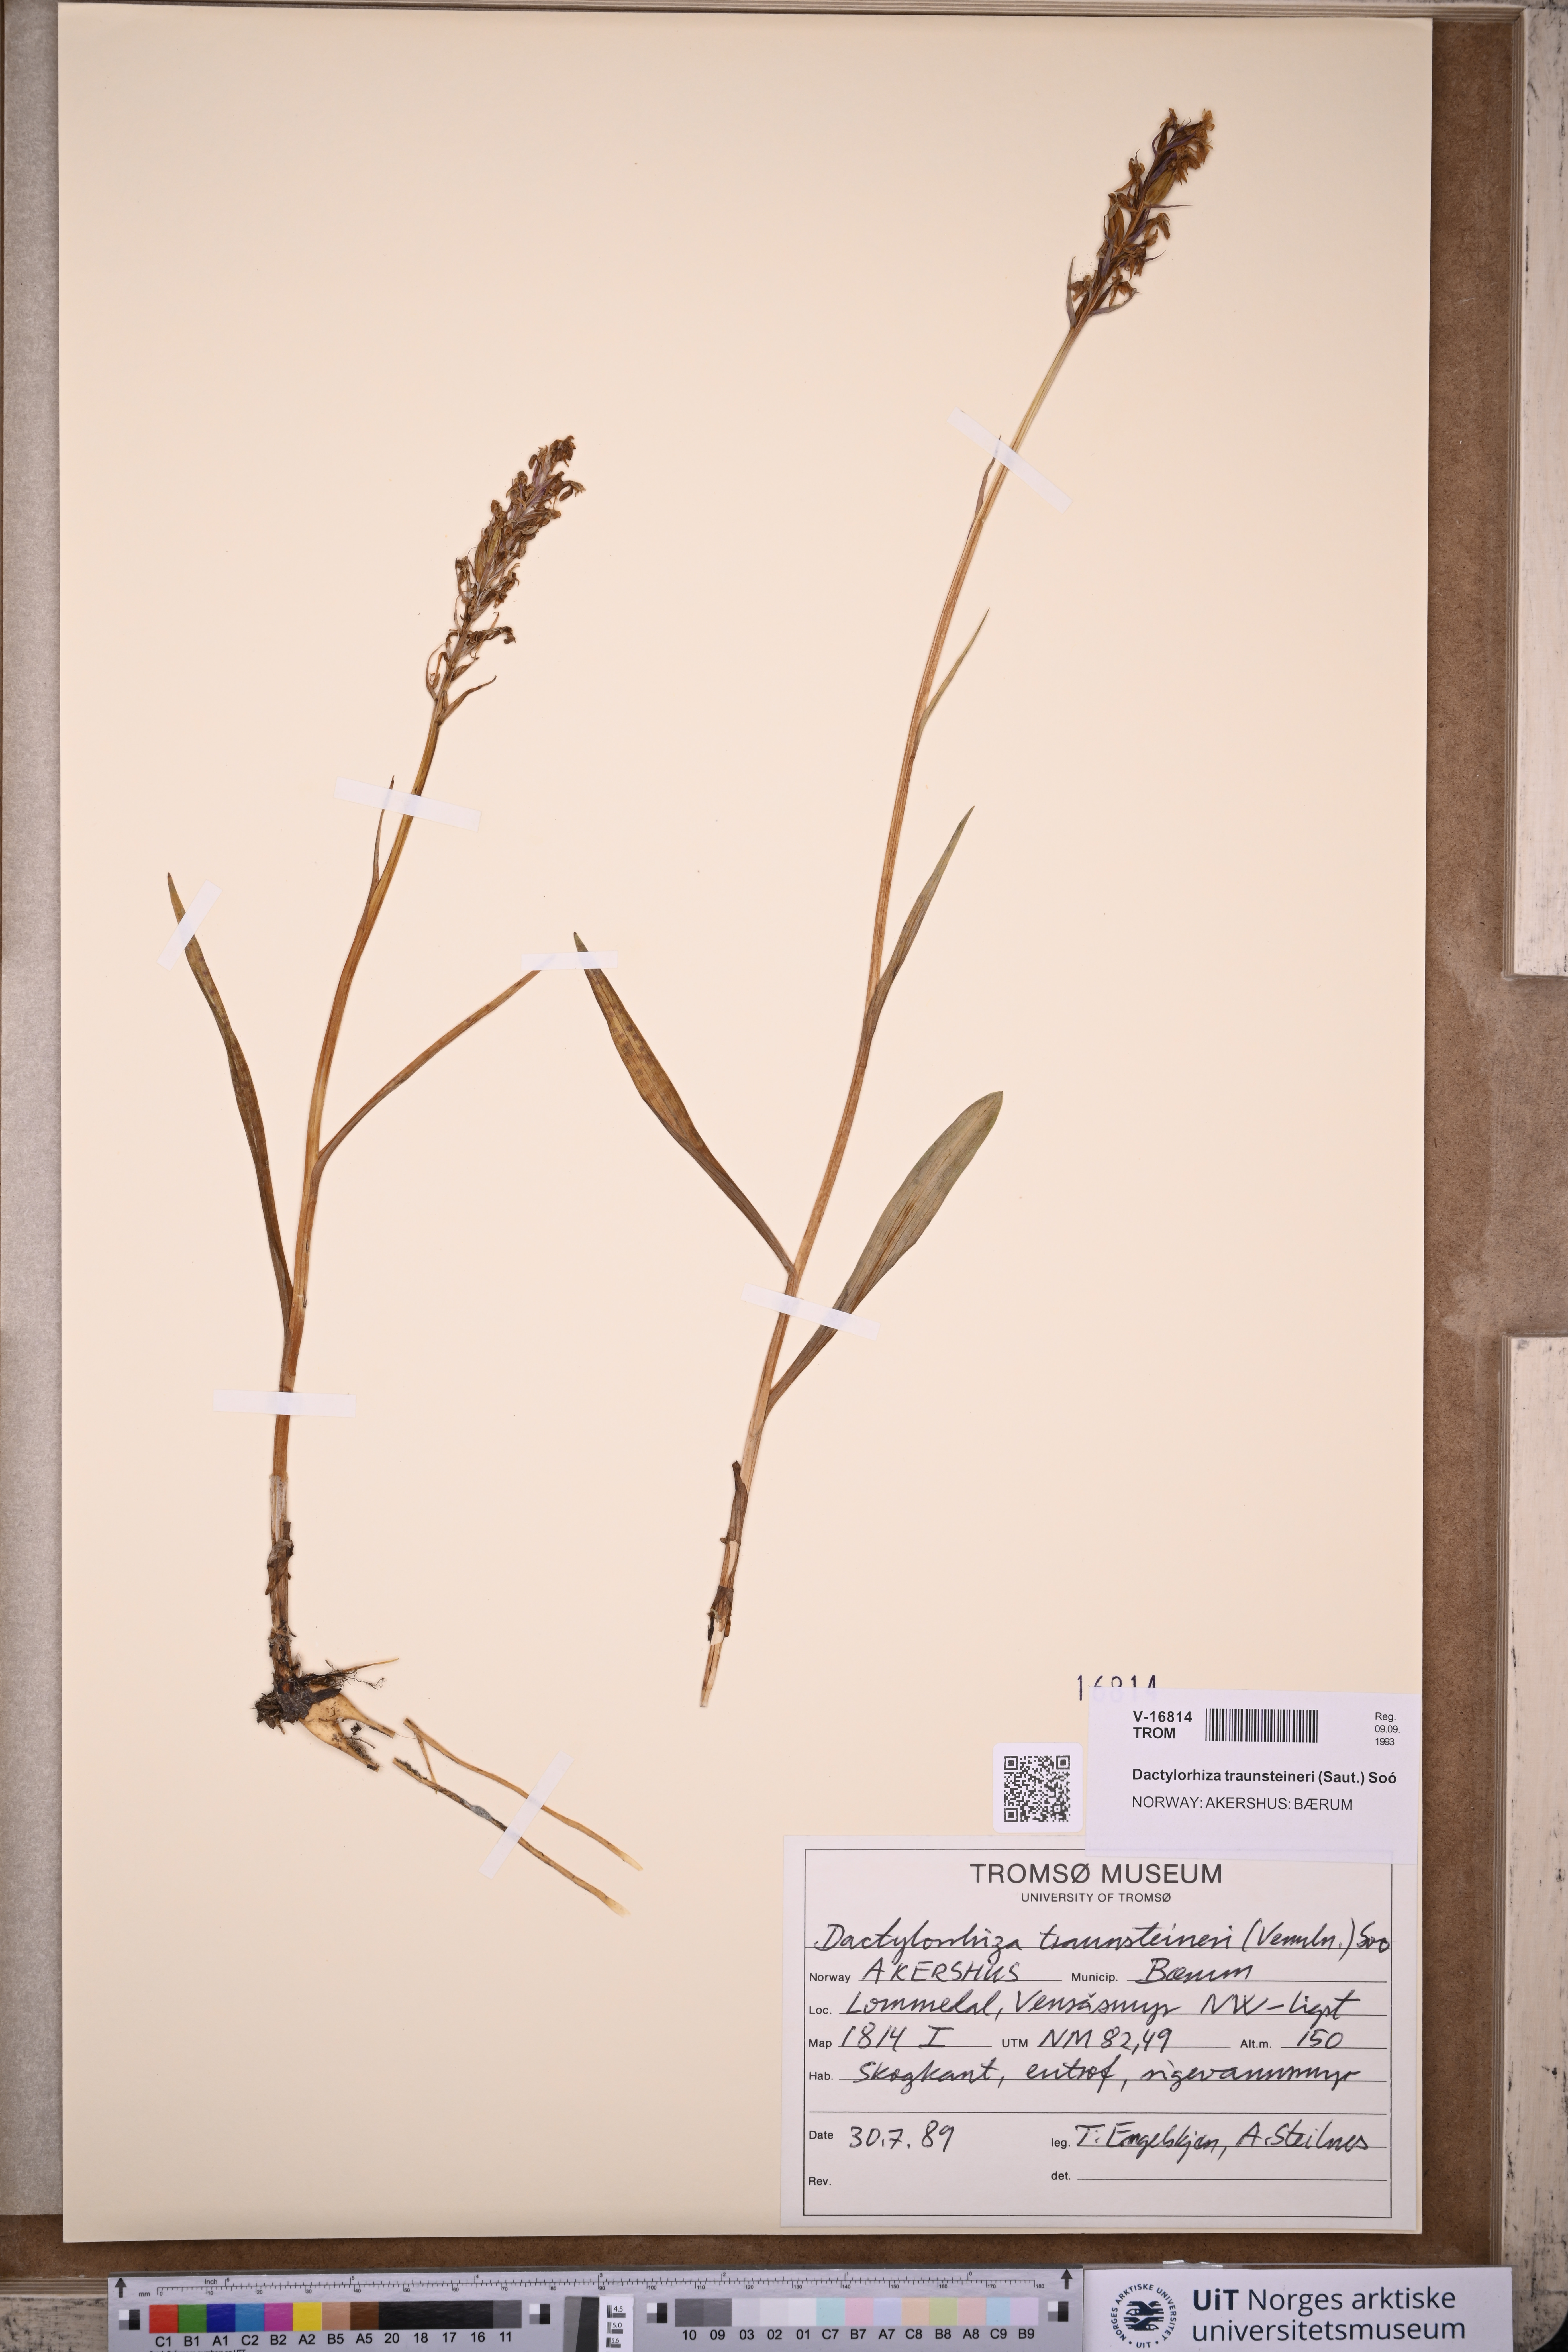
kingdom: Plantae
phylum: Tracheophyta
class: Liliopsida
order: Asparagales
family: Orchidaceae
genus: Dactylorhiza
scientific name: Dactylorhiza majalis
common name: Marsh orchid
